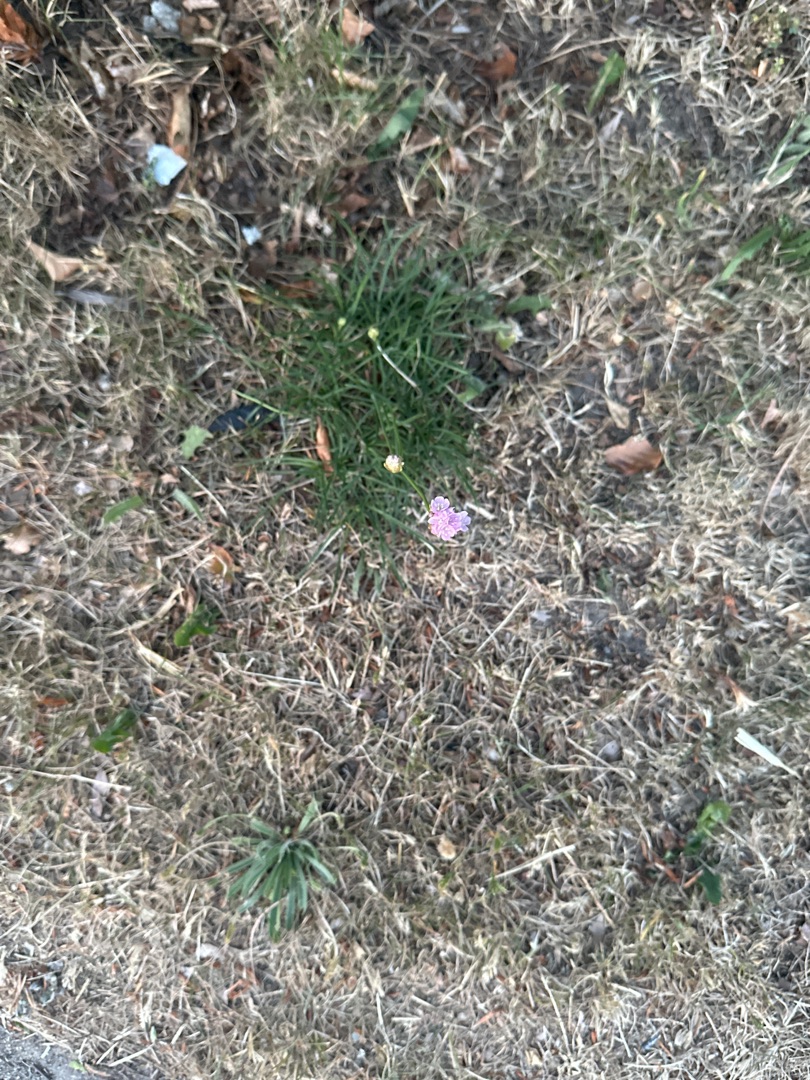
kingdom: Plantae
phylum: Tracheophyta
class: Magnoliopsida
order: Caryophyllales
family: Plumbaginaceae
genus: Armeria
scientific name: Armeria maritima
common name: Engelskgræs
